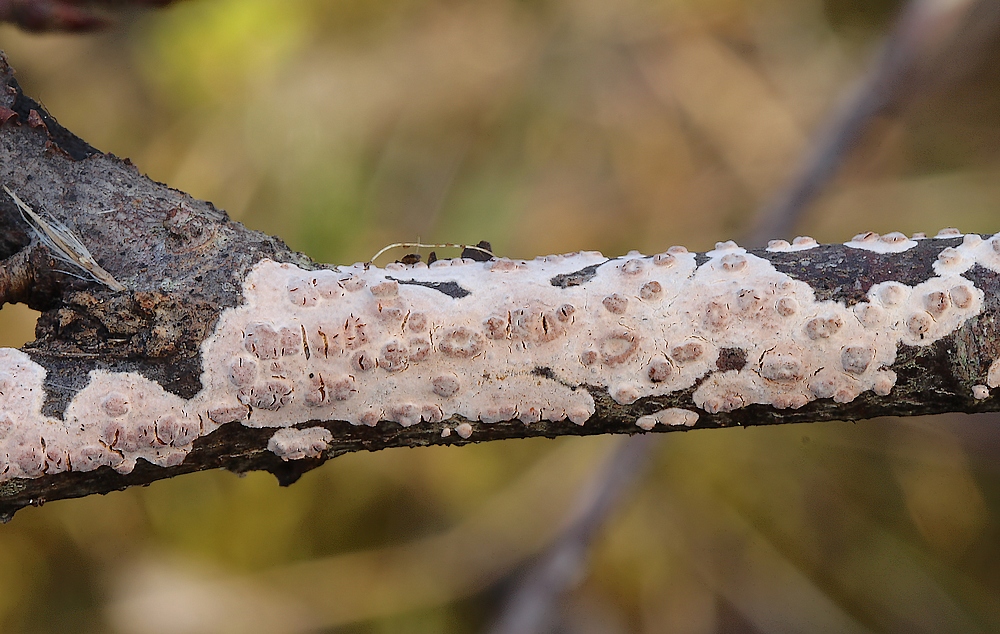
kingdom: Fungi
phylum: Basidiomycota
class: Agaricomycetes
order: Corticiales
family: Corticiaceae
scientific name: Corticiaceae
